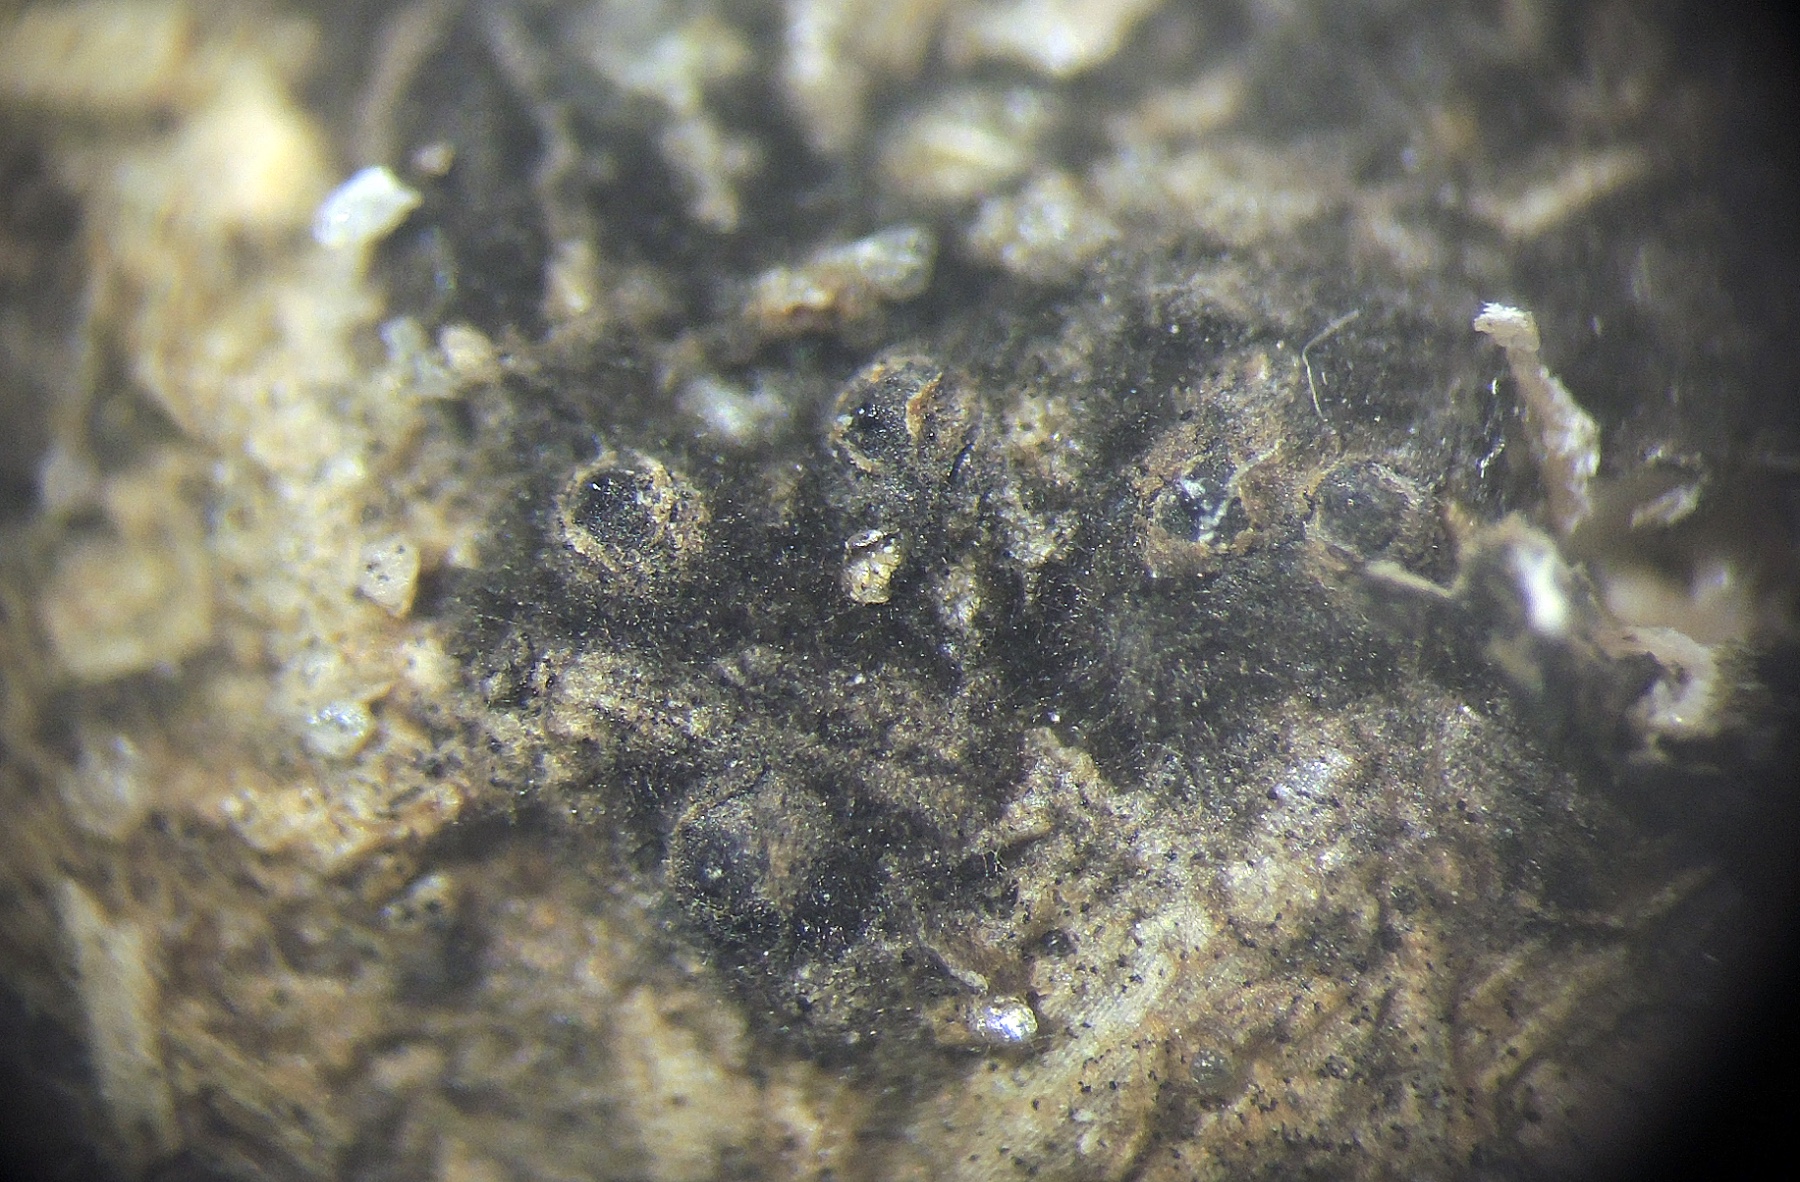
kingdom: Fungi
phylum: Ascomycota
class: Sordariomycetes
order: Xylariales
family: Xylariaceae
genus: Hypocopra
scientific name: Hypocopra leporina
